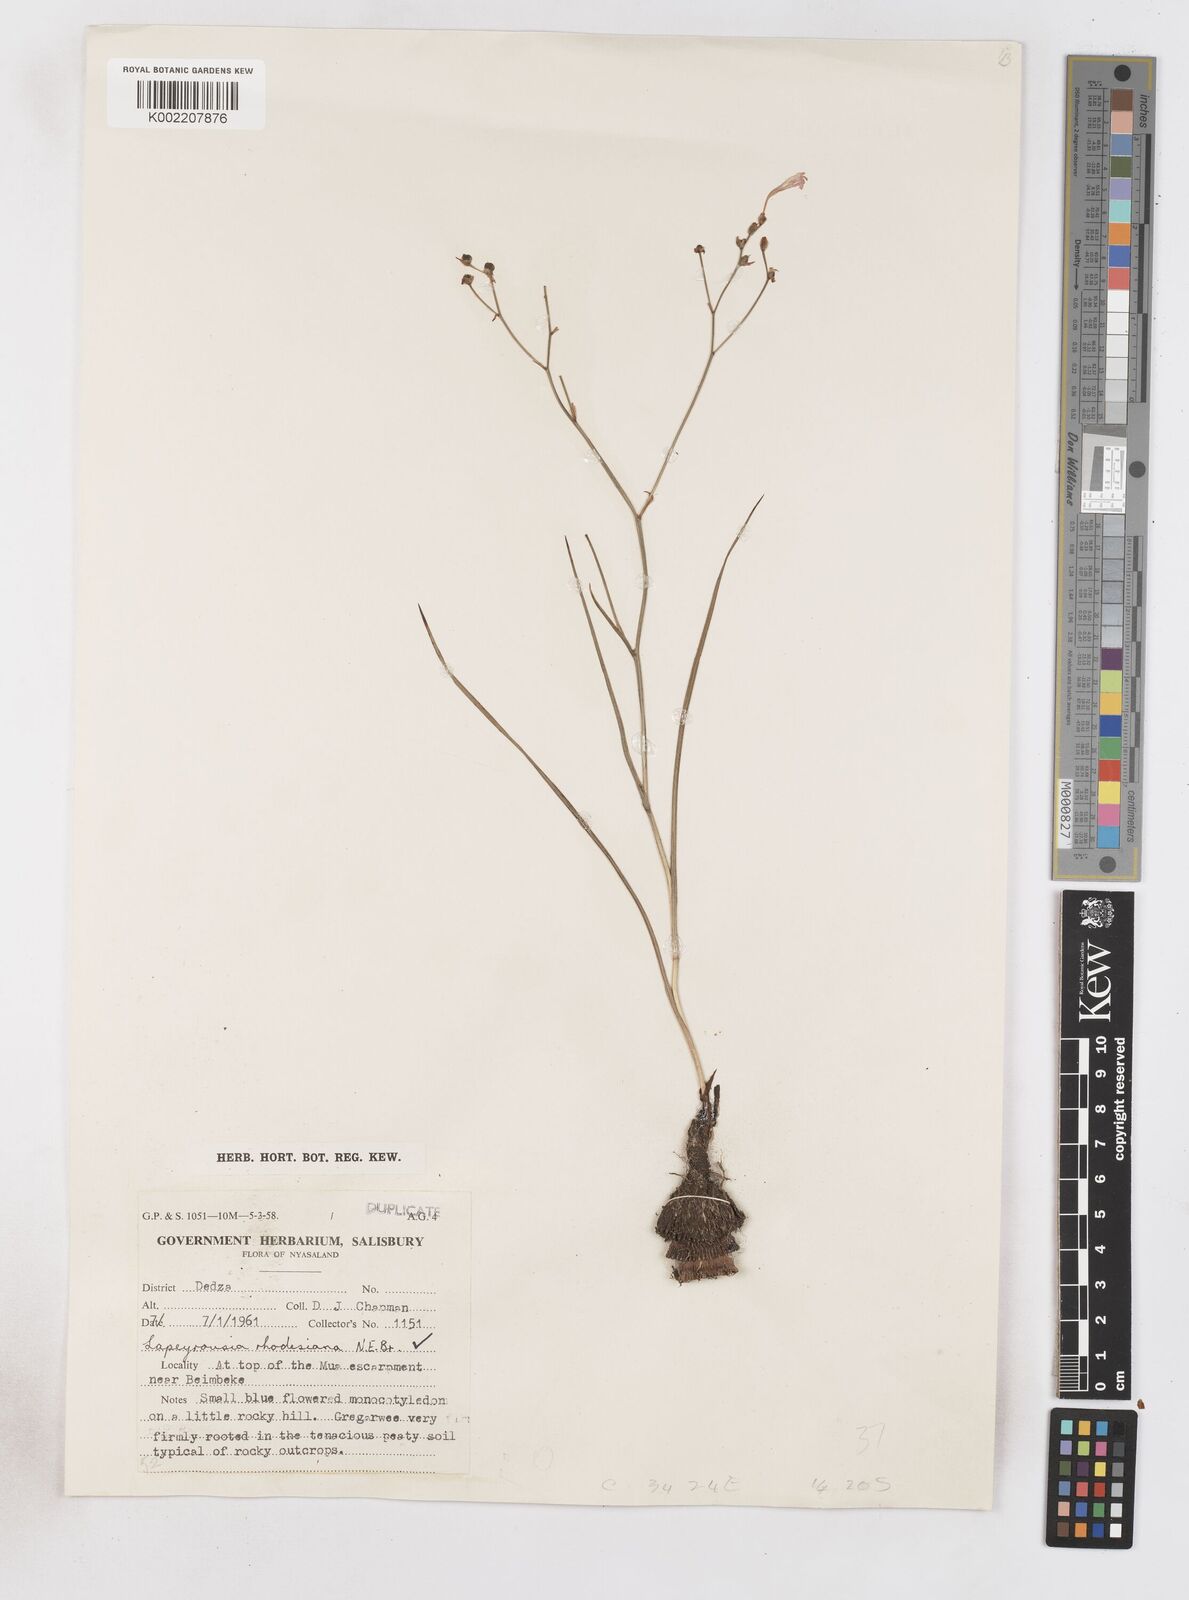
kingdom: Plantae
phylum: Tracheophyta
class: Liliopsida
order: Asparagales
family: Iridaceae
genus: Afrosolen
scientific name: Afrosolen erythranthus
